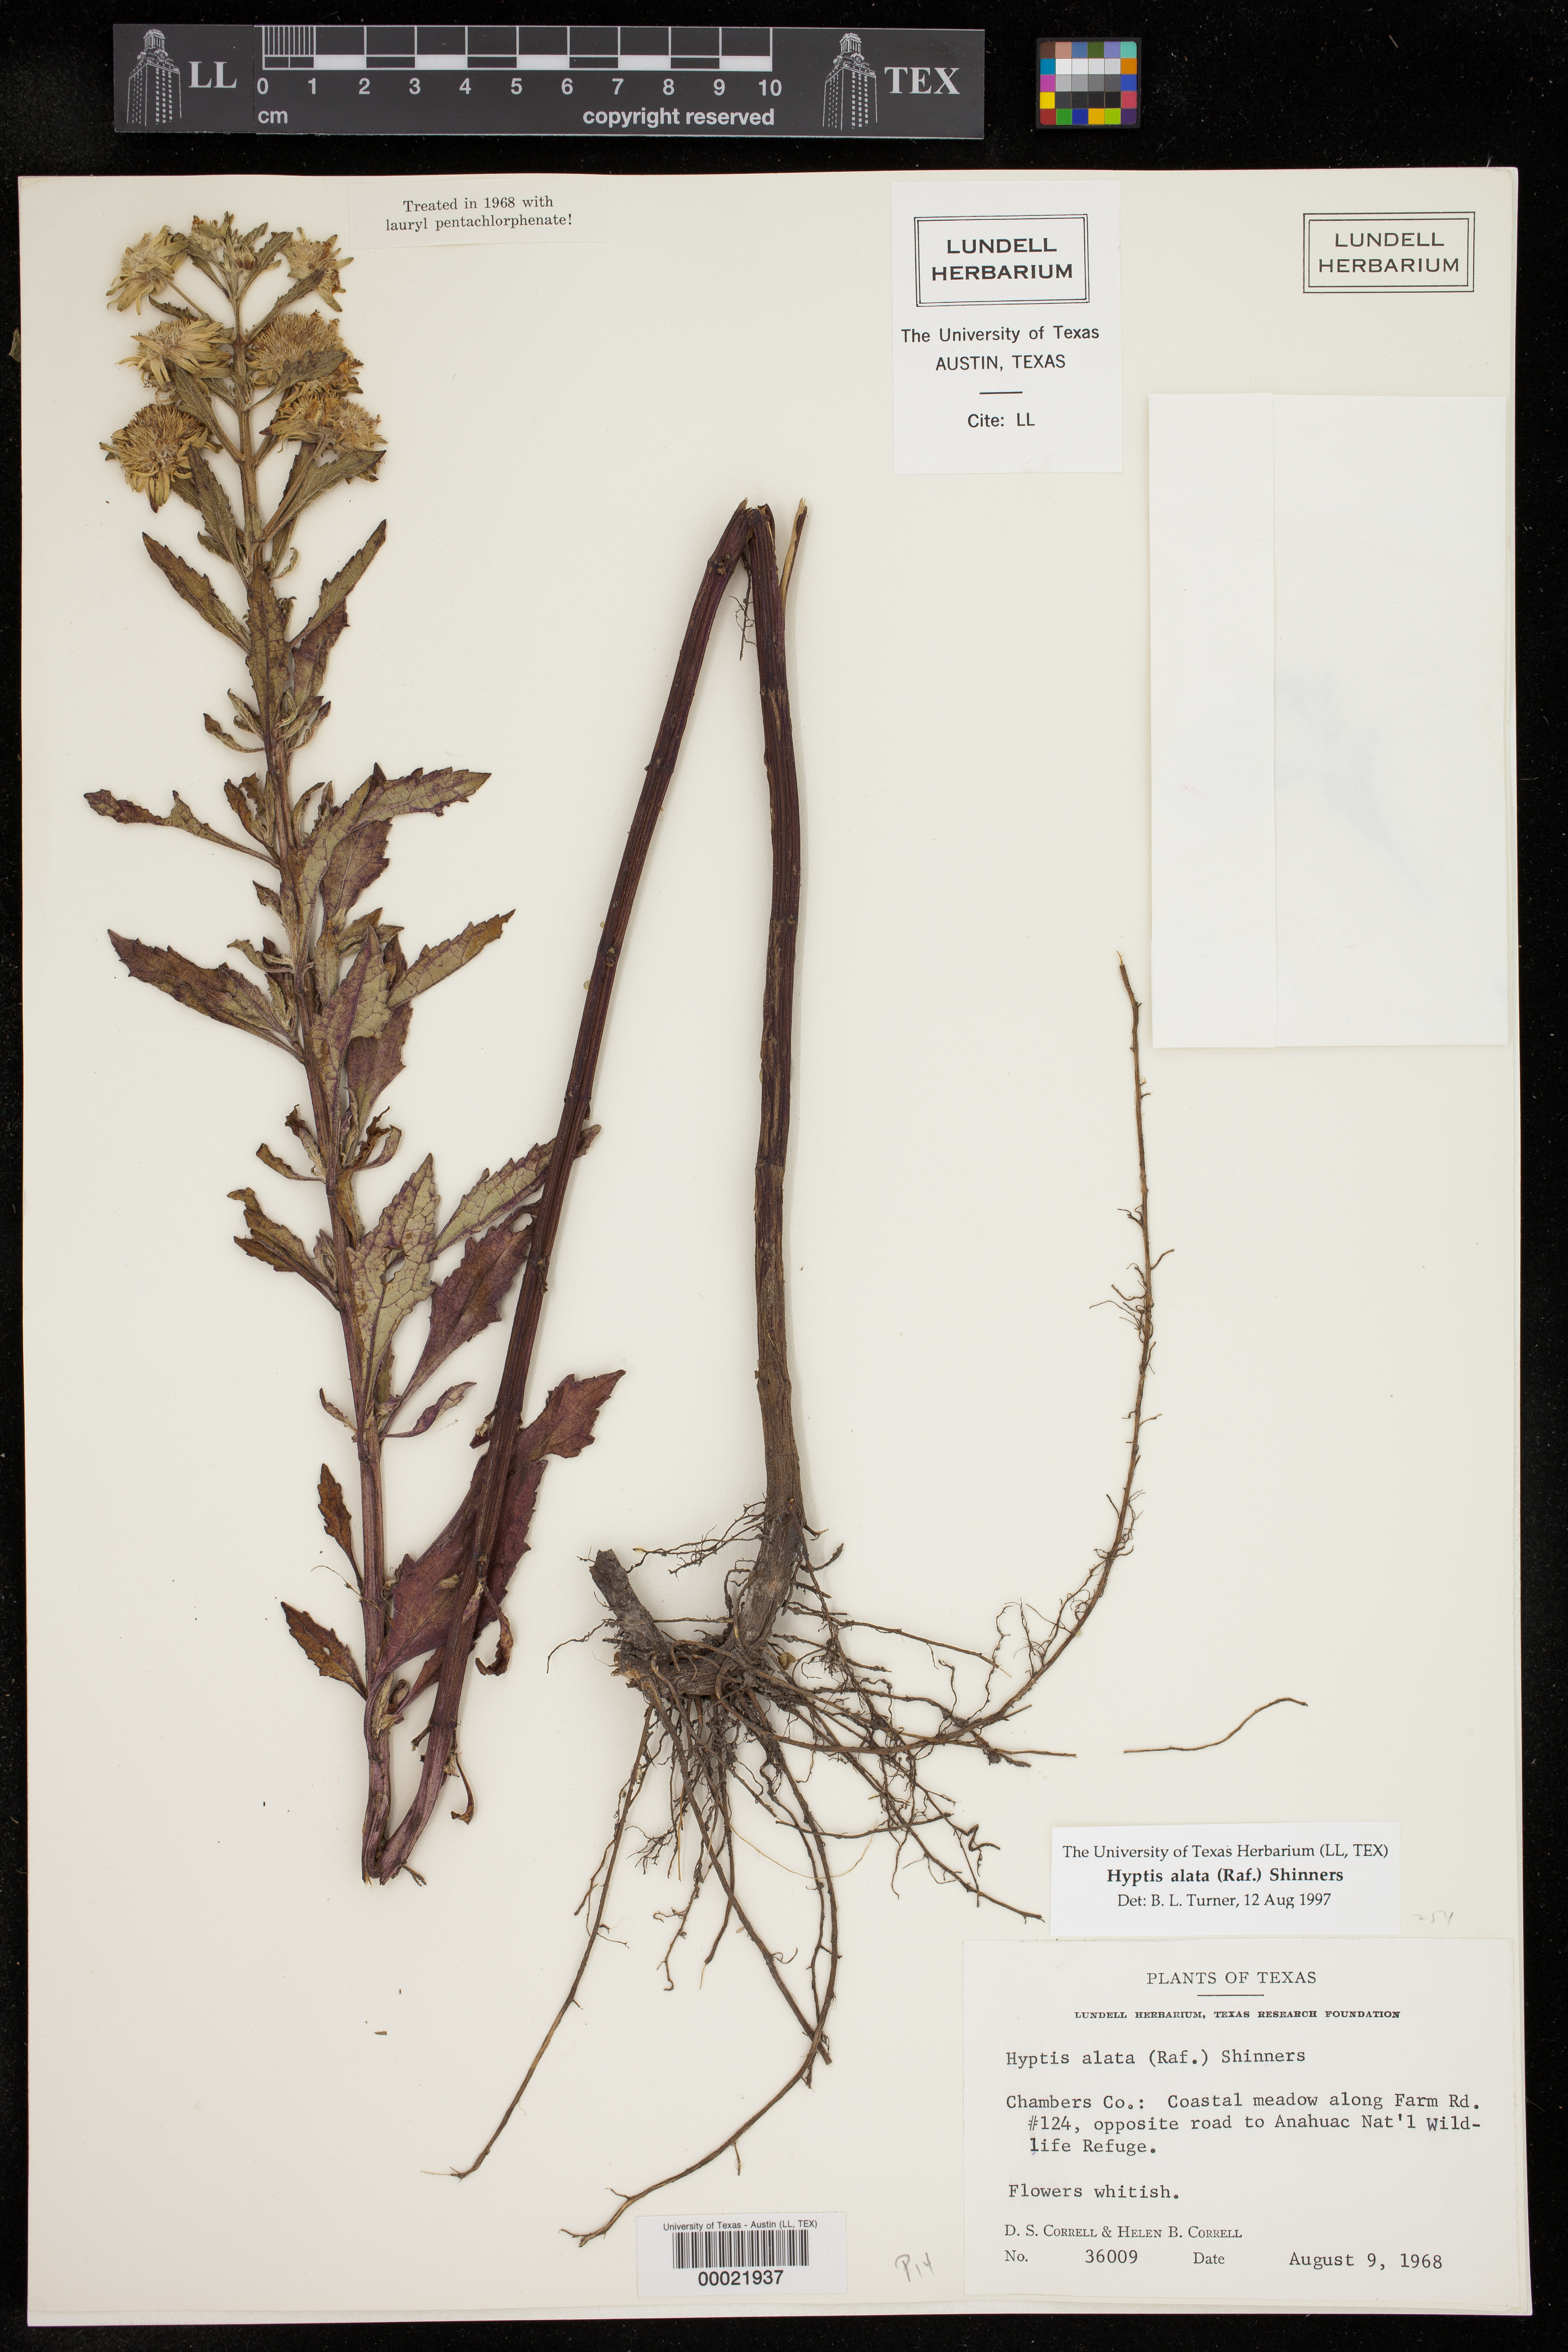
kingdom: Plantae
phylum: Tracheophyta
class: Magnoliopsida
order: Lamiales
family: Lamiaceae
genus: Hyptis
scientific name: Hyptis alata
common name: Cluster bush-mint
